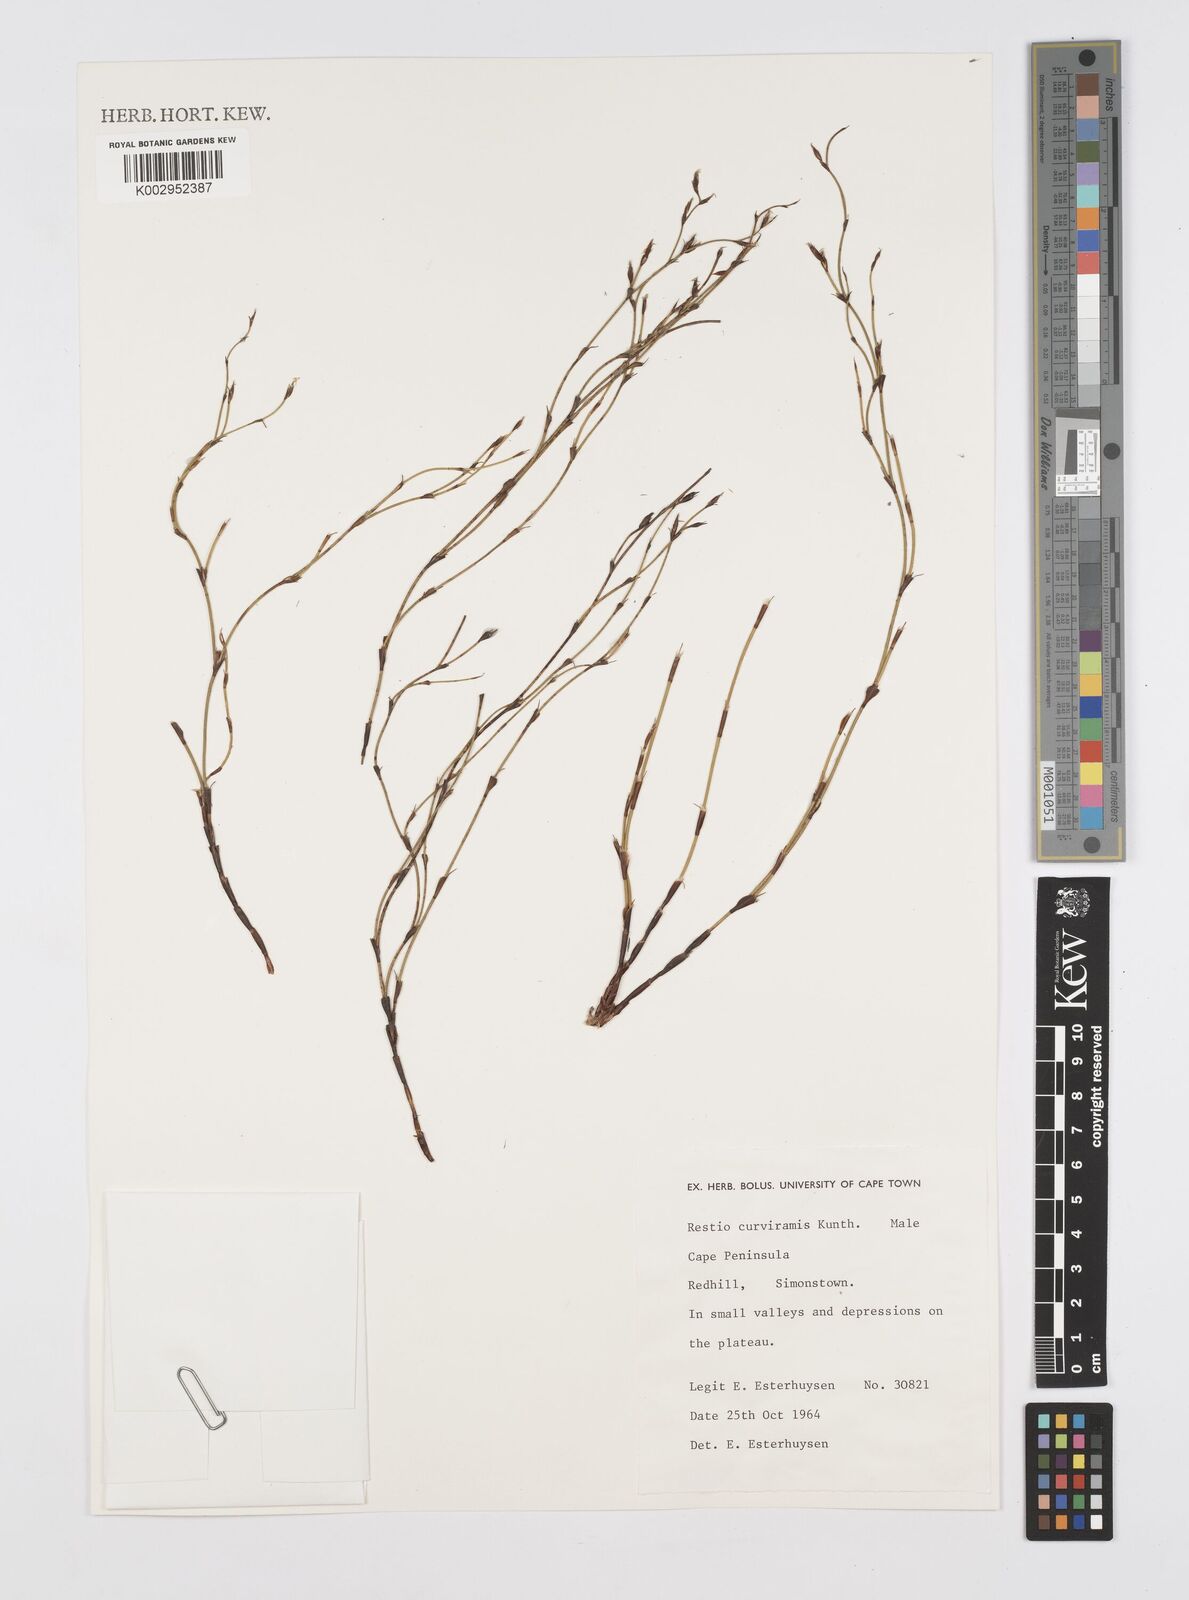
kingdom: Plantae
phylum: Tracheophyta
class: Liliopsida
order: Poales
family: Restionaceae
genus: Restio
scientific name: Restio curviramis
